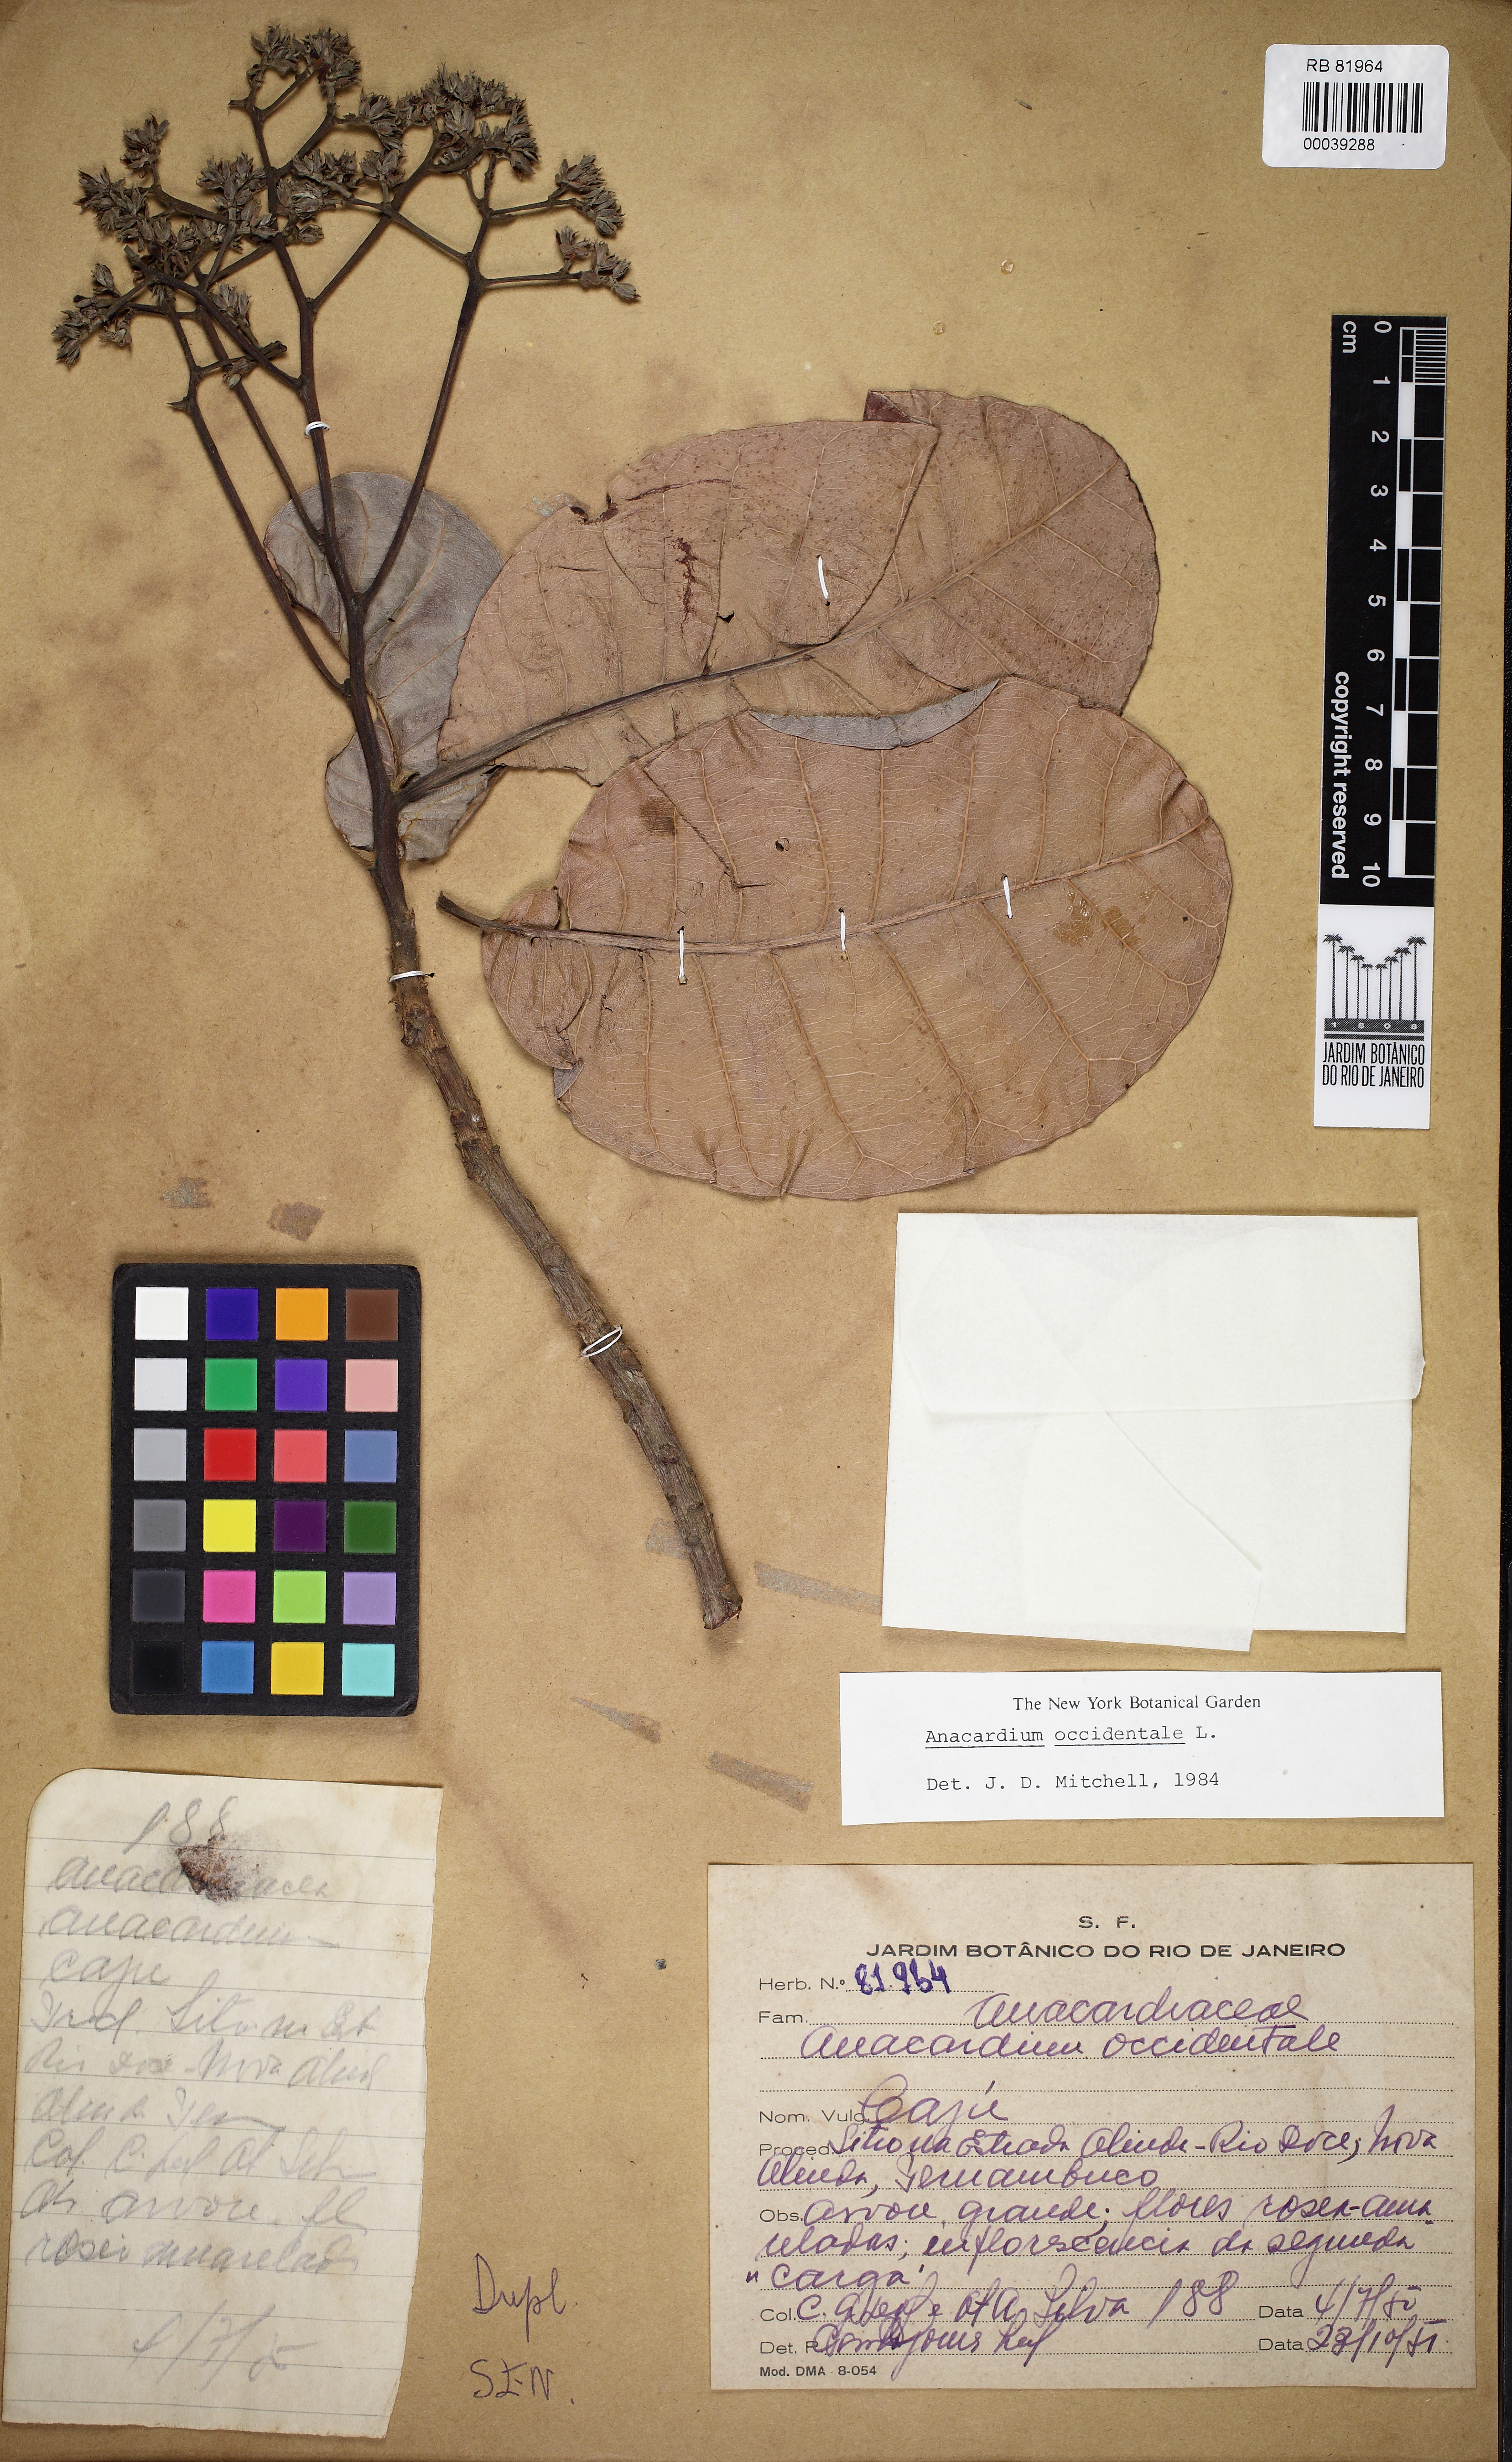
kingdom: Plantae
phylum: Tracheophyta
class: Magnoliopsida
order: Sapindales
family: Anacardiaceae
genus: Anacardium
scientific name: Anacardium occidentale
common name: Cashew
